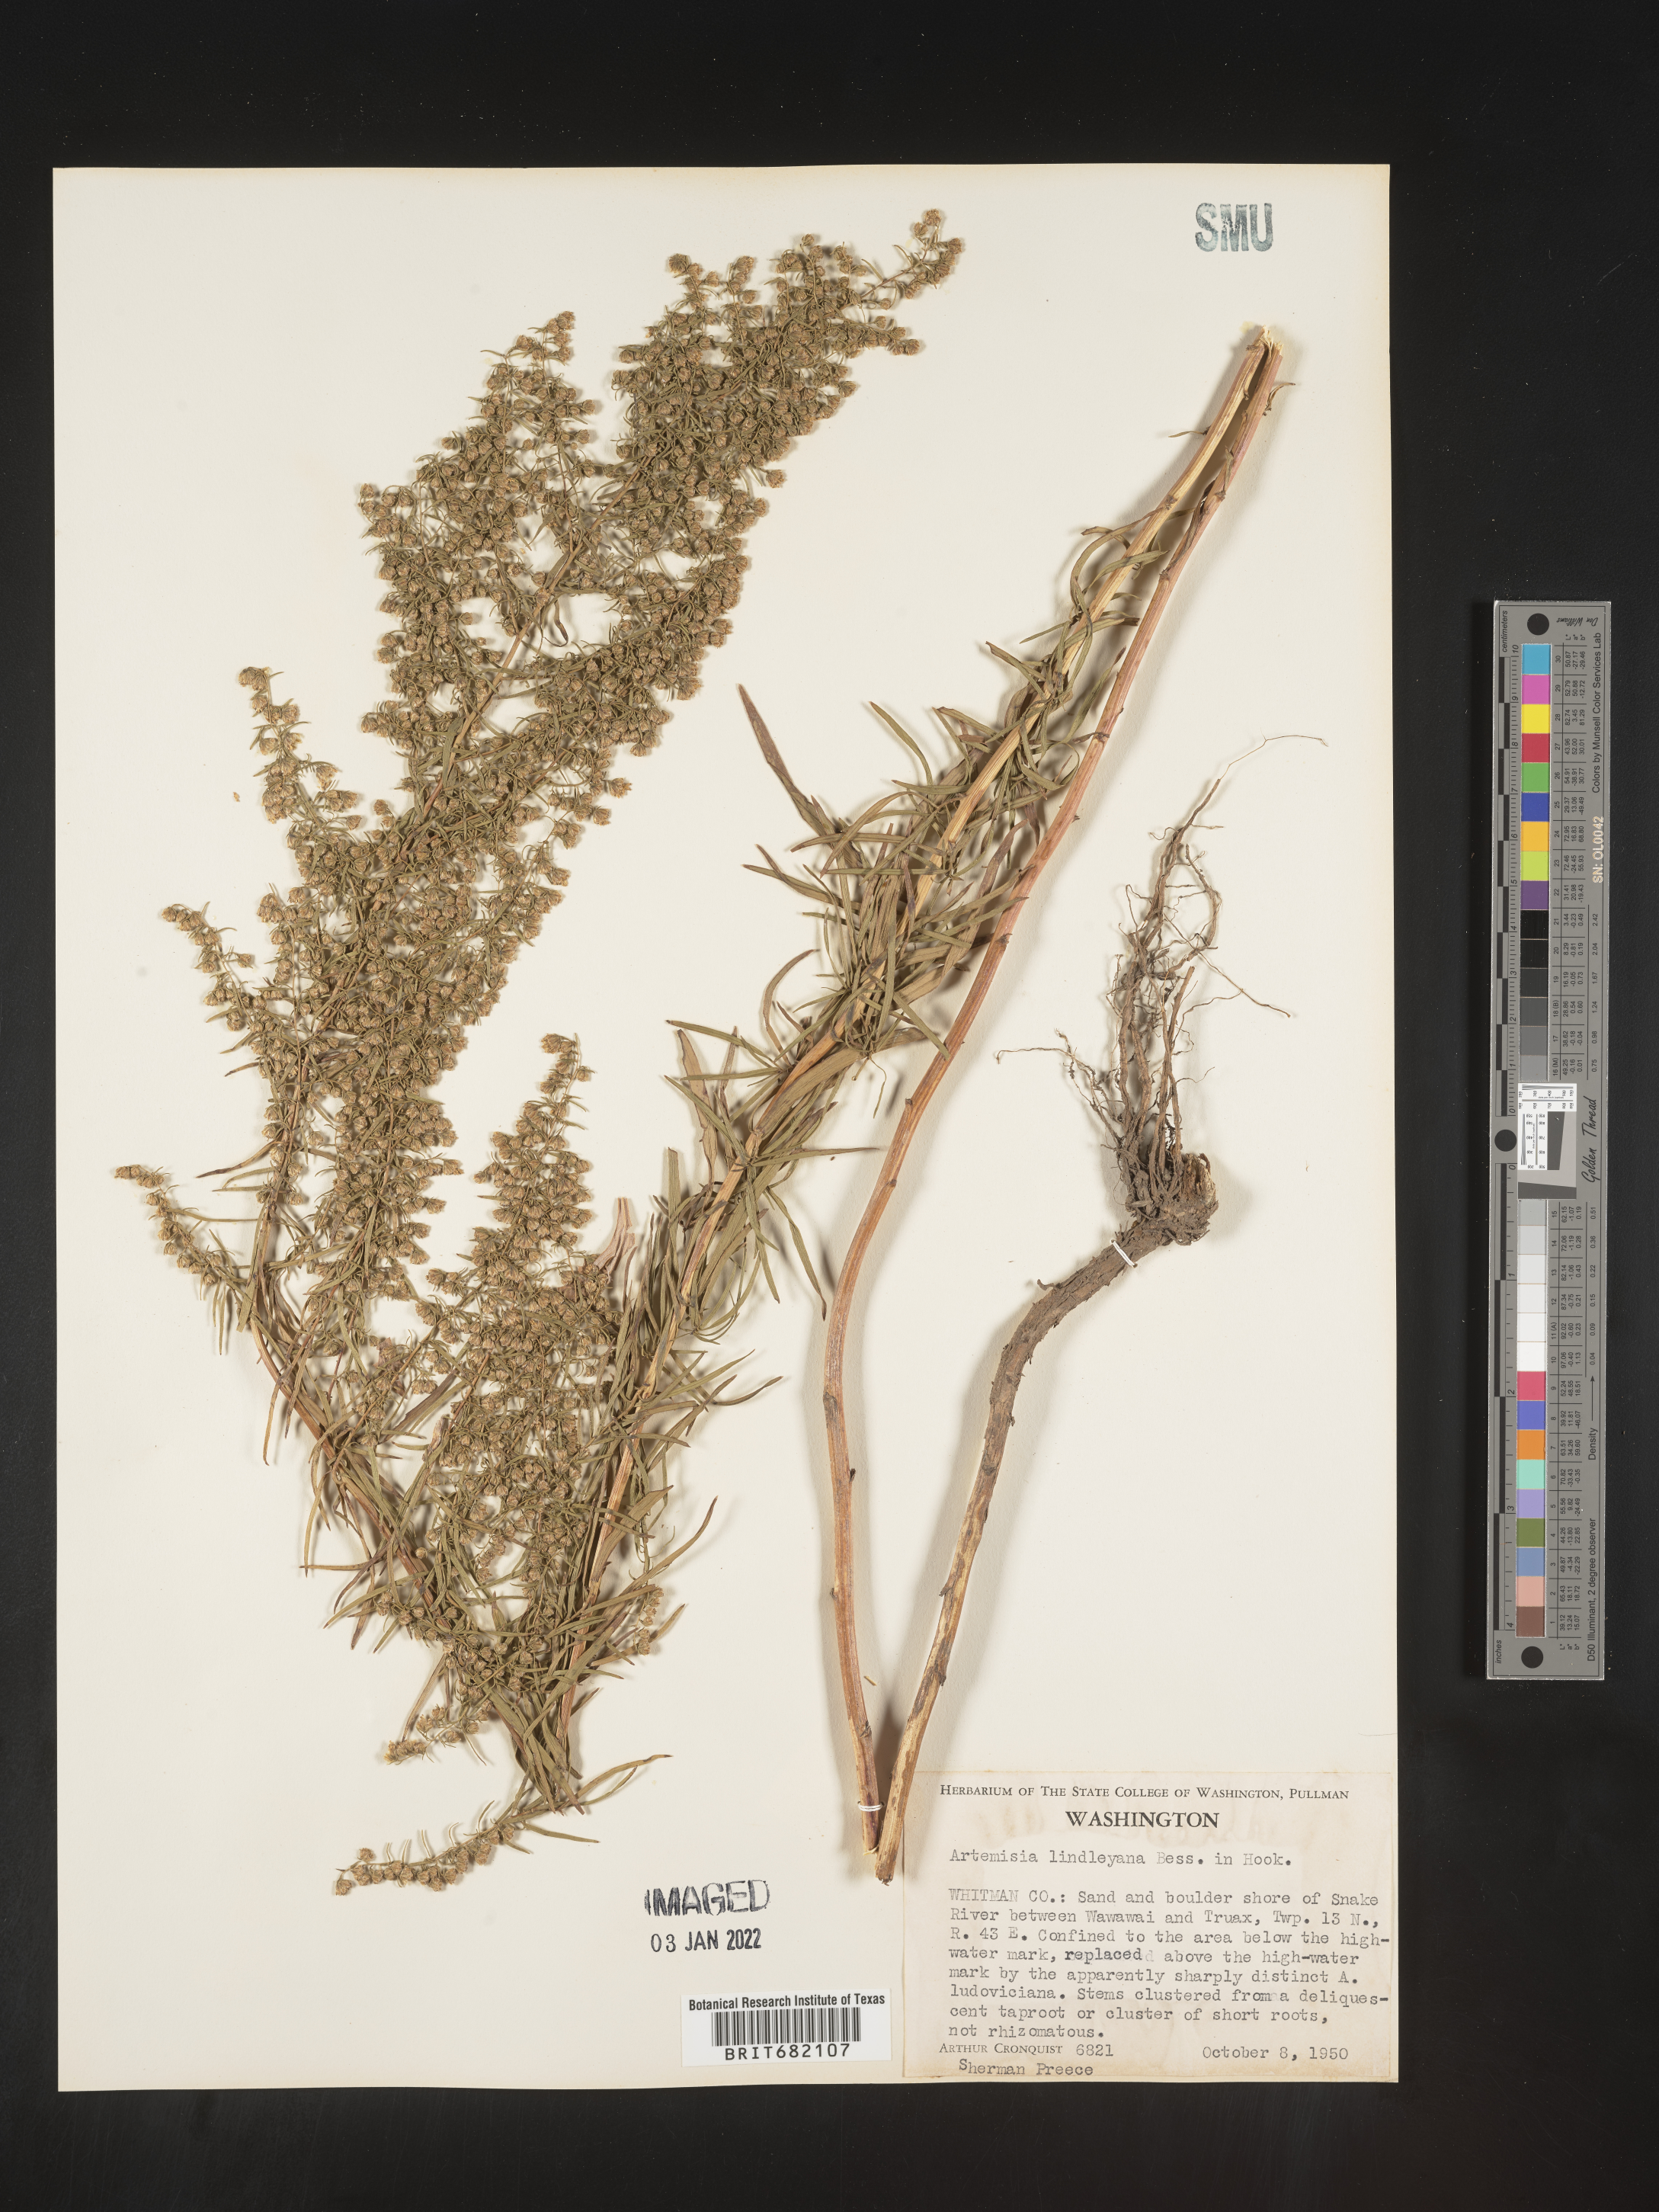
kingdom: Plantae
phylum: Tracheophyta
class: Magnoliopsida
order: Asterales
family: Asteraceae
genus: Artemisia
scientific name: Artemisia ludoviciana
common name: Western mugwort
